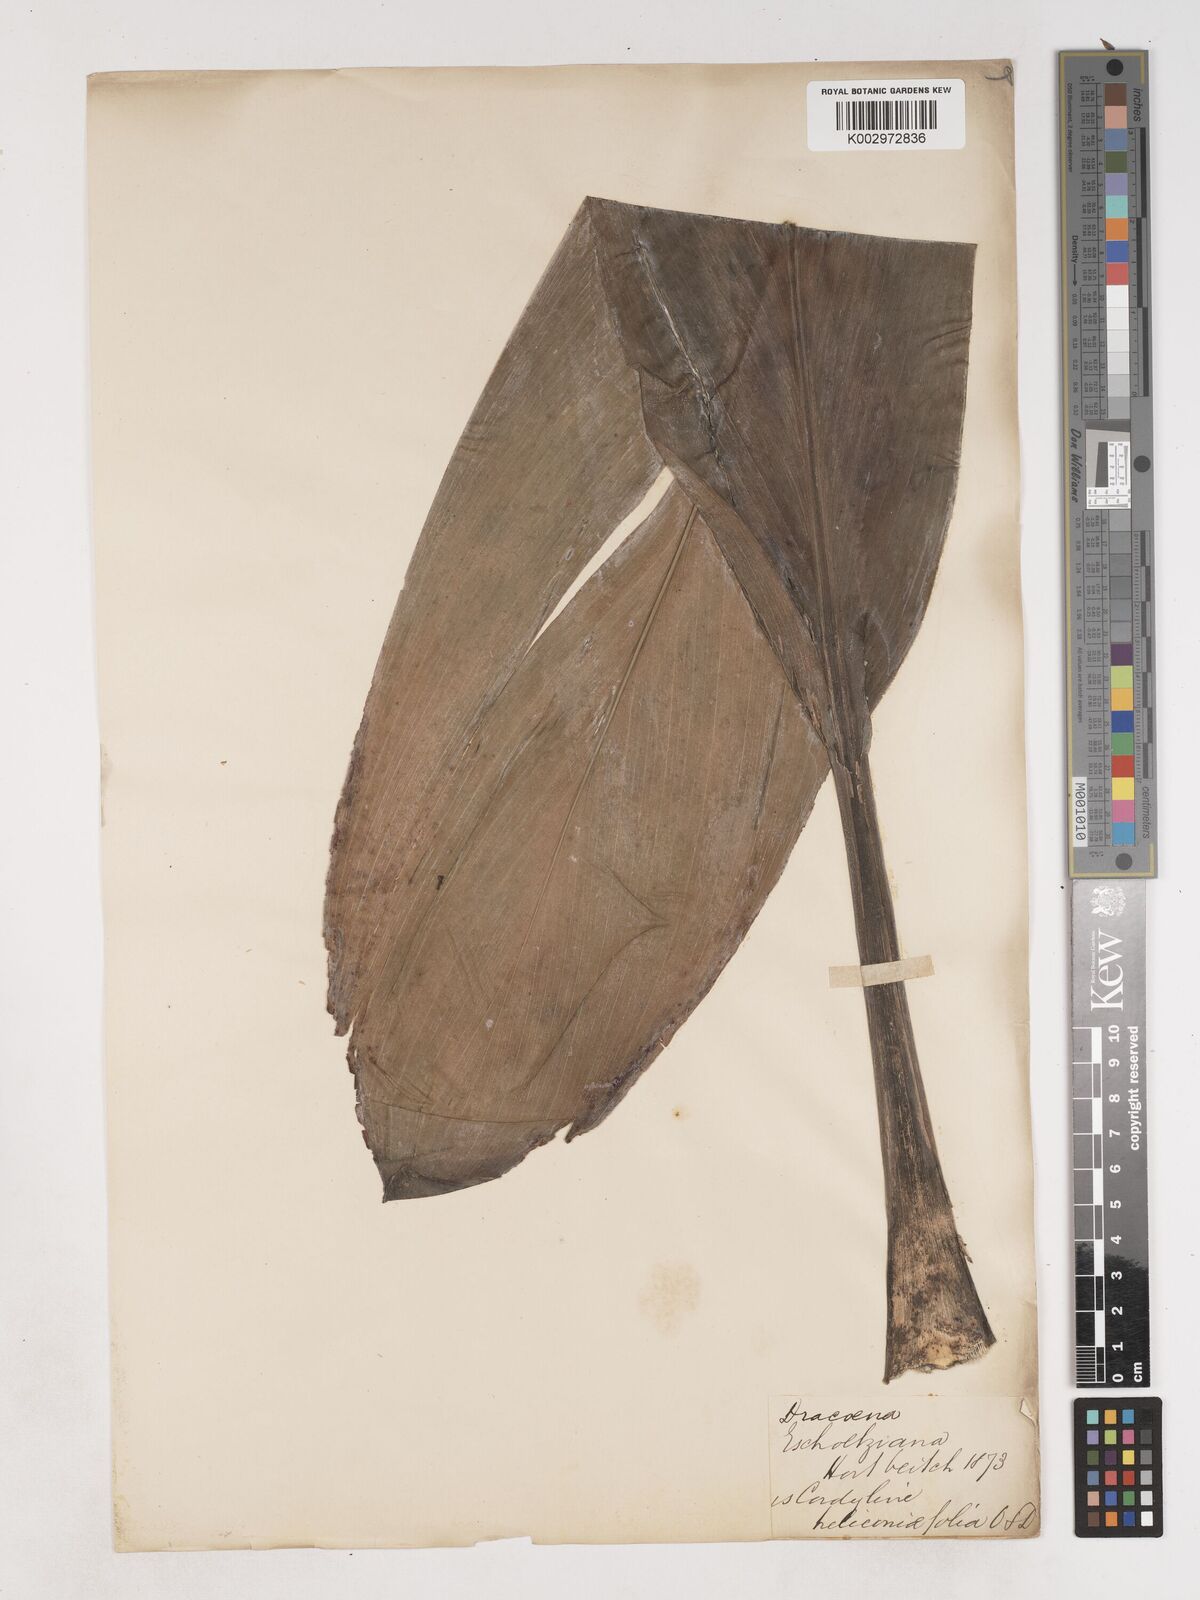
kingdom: Plantae
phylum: Tracheophyta
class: Liliopsida
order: Asparagales
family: Asparagaceae
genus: Cordyline
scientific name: Cordyline fruticosa
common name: Good-luck-plant
